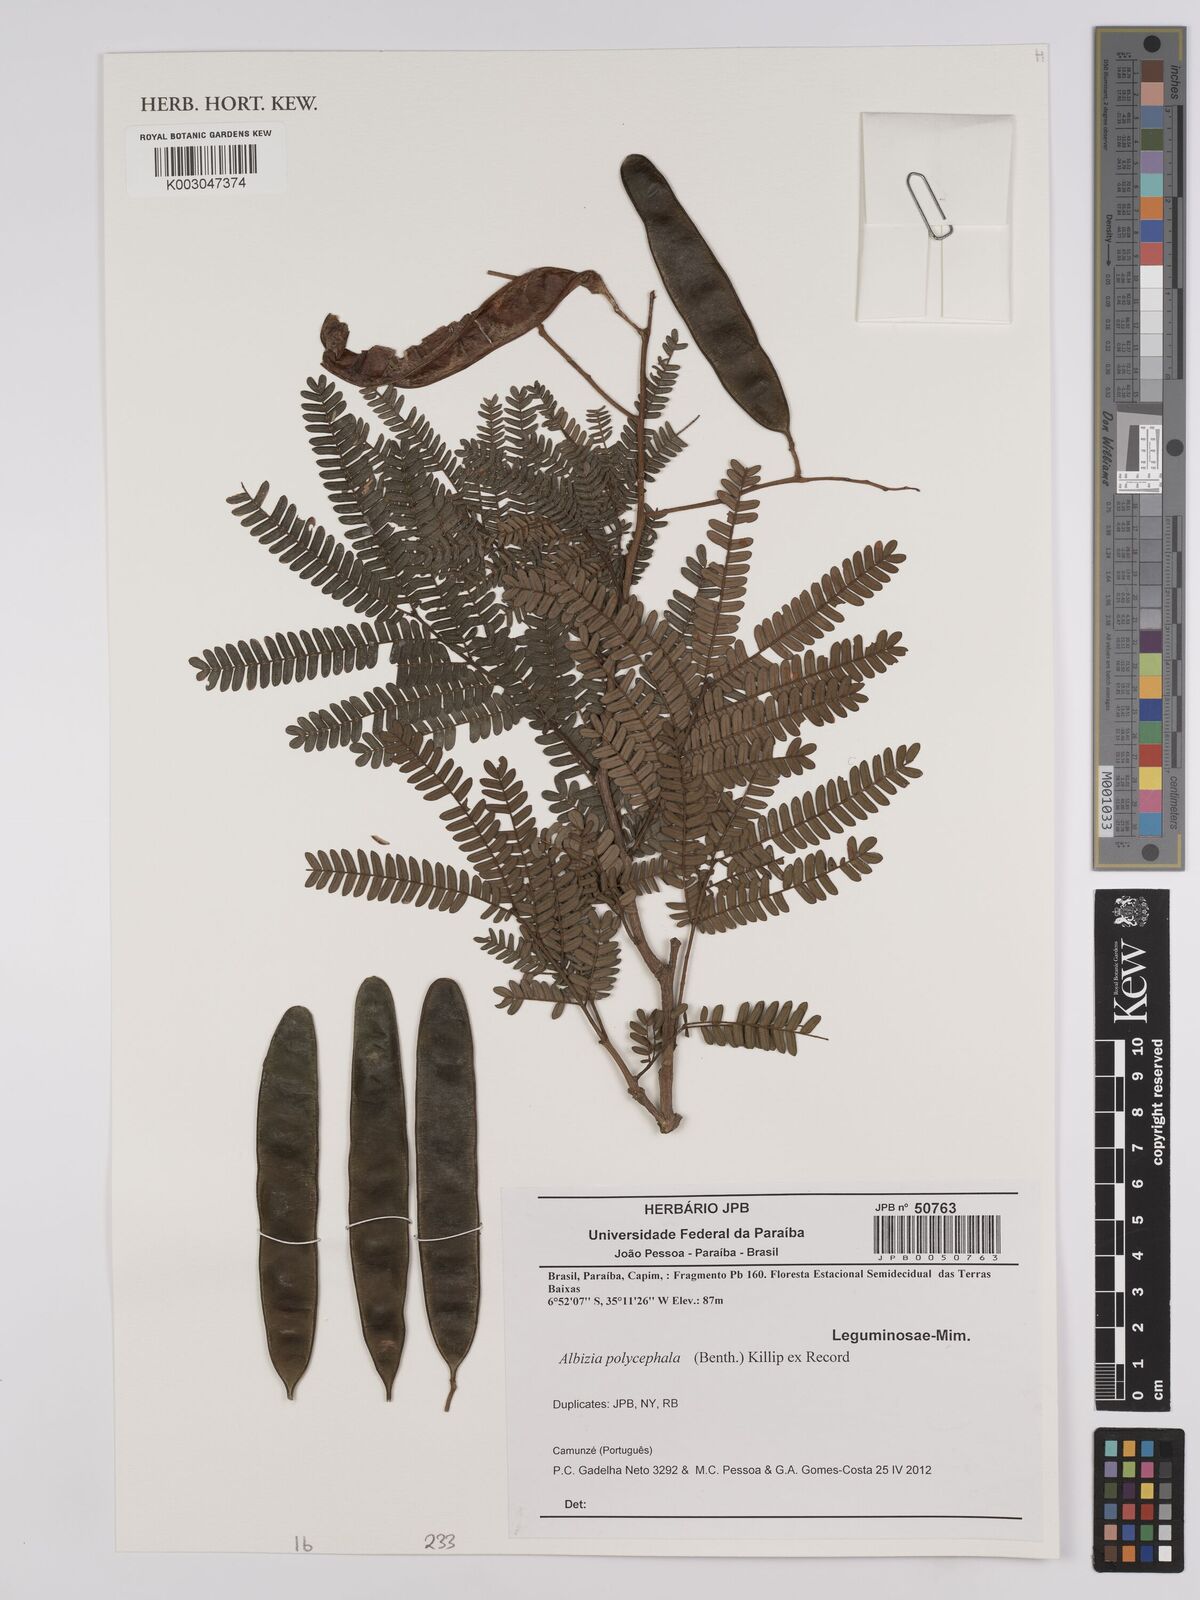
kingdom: Plantae
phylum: Tracheophyta
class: Magnoliopsida
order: Fabales
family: Fabaceae
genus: Albizia
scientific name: Albizia polycephala
